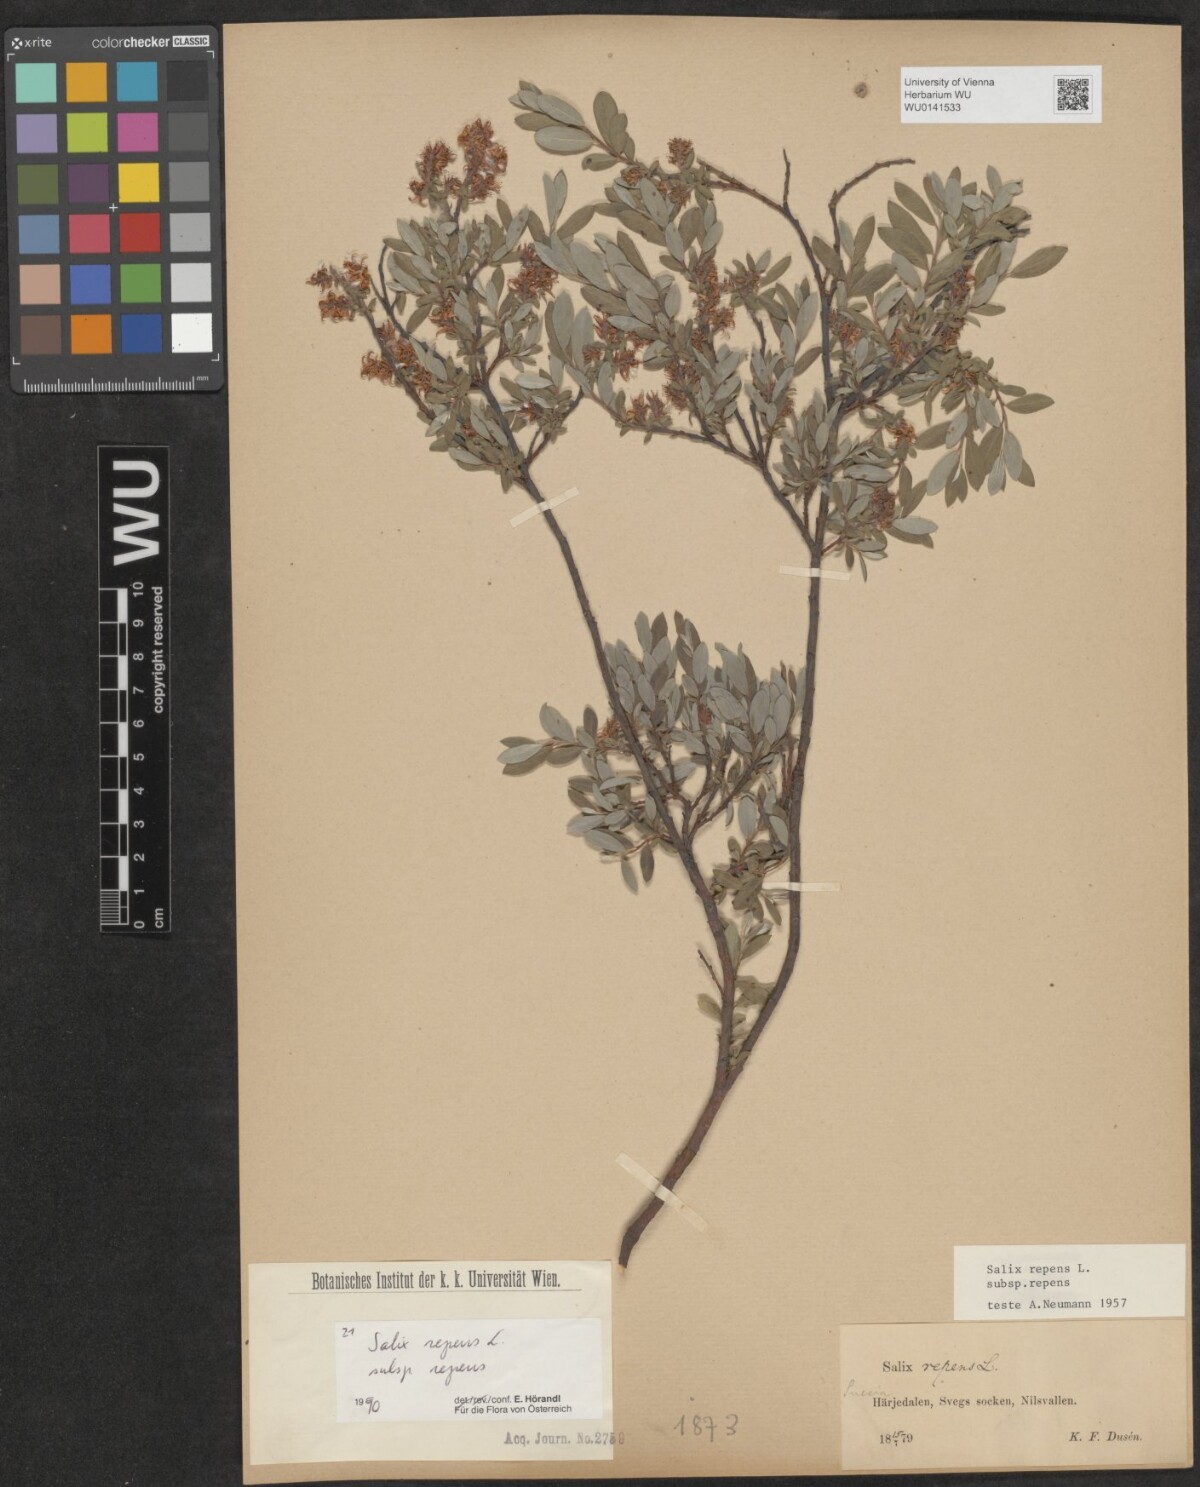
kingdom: Plantae
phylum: Tracheophyta
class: Magnoliopsida
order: Malpighiales
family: Salicaceae
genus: Salix
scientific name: Salix repens
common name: Creeping willow
